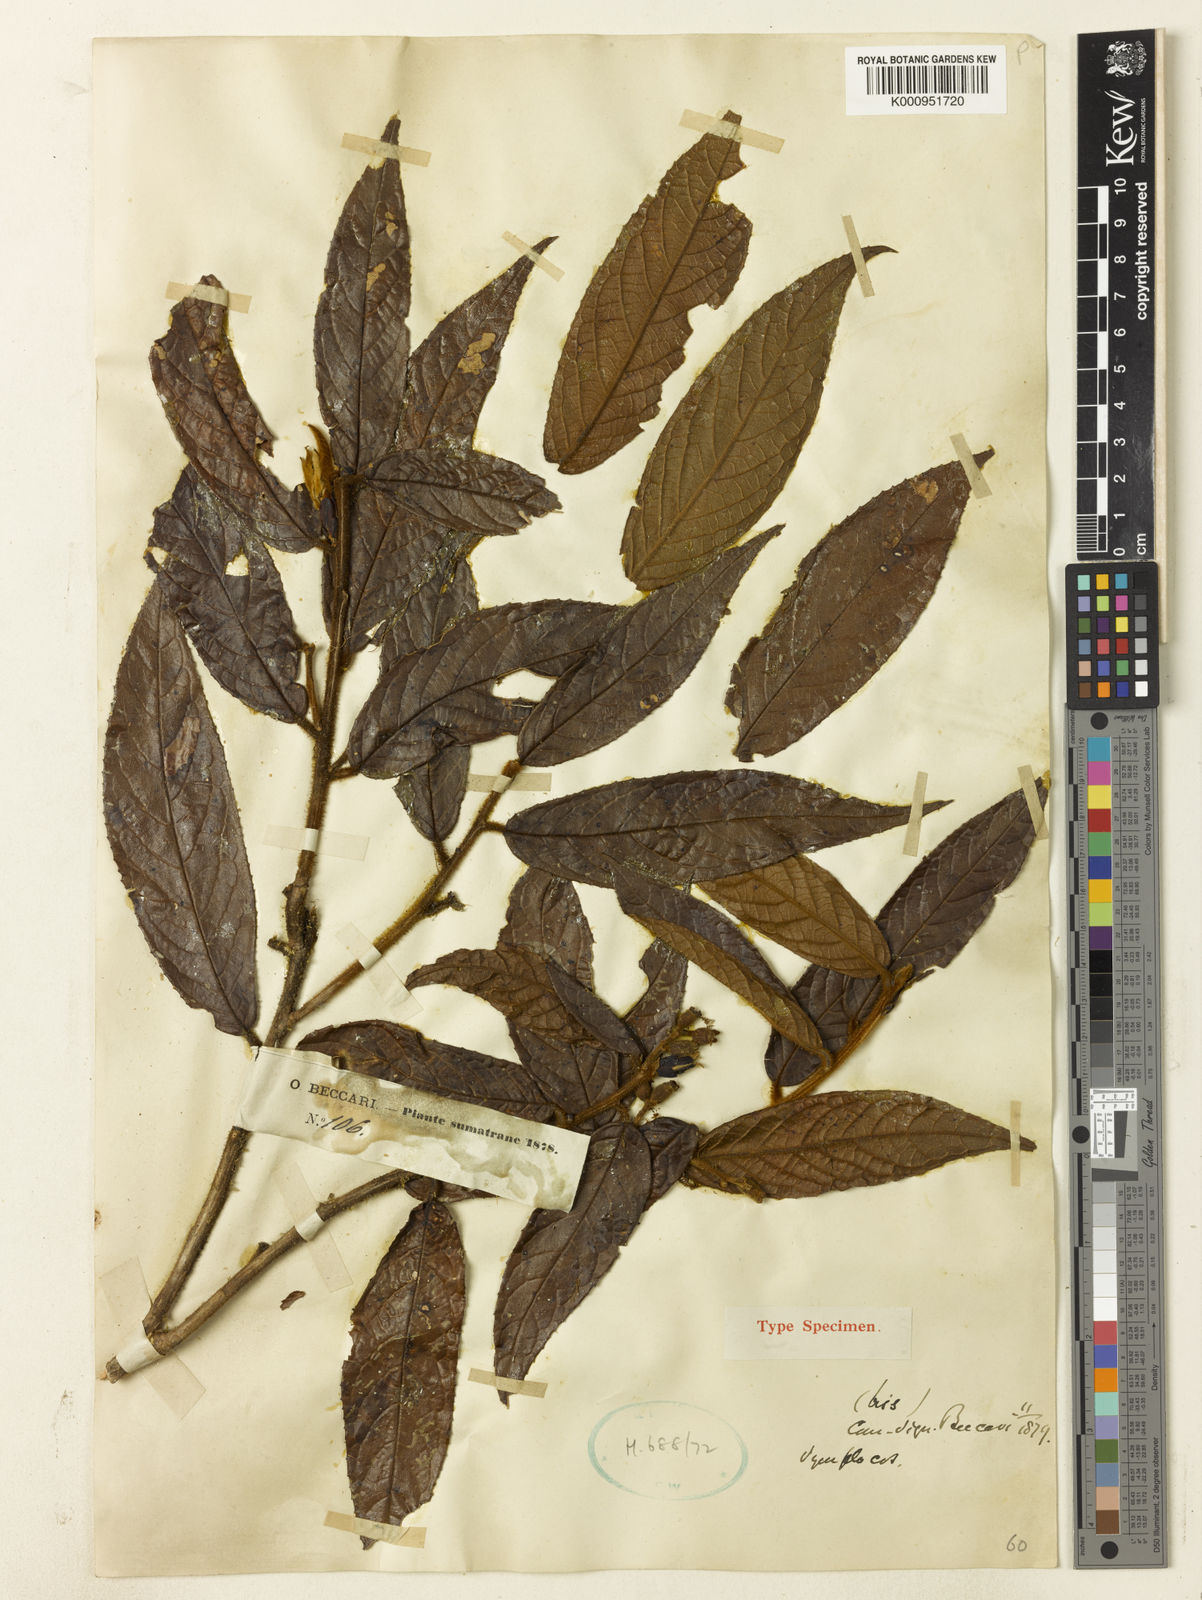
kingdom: Plantae
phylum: Tracheophyta
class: Magnoliopsida
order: Ericales
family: Symplocaceae
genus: Symplocos
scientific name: Symplocos sumatrana
